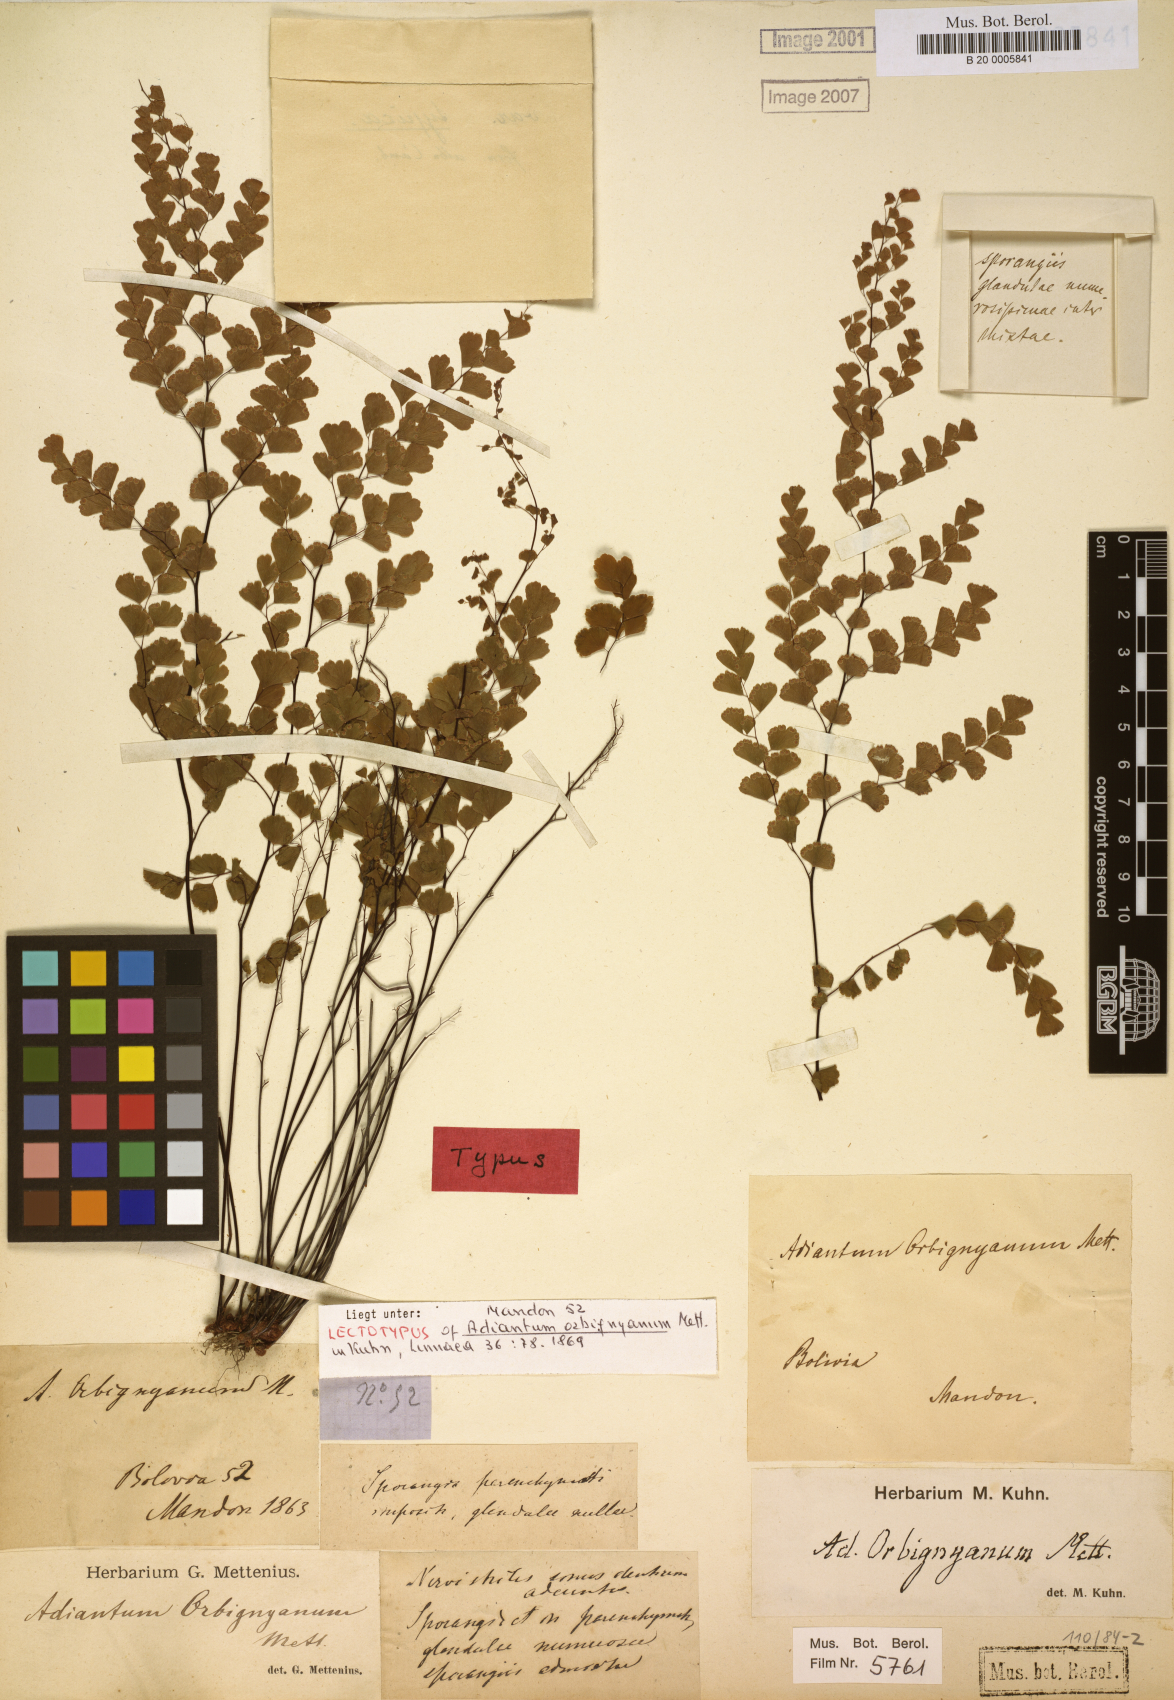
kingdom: Plantae
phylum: Tracheophyta
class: Polypodiopsida
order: Polypodiales
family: Pteridaceae
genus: Adiantum
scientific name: Adiantum orbignyanum
